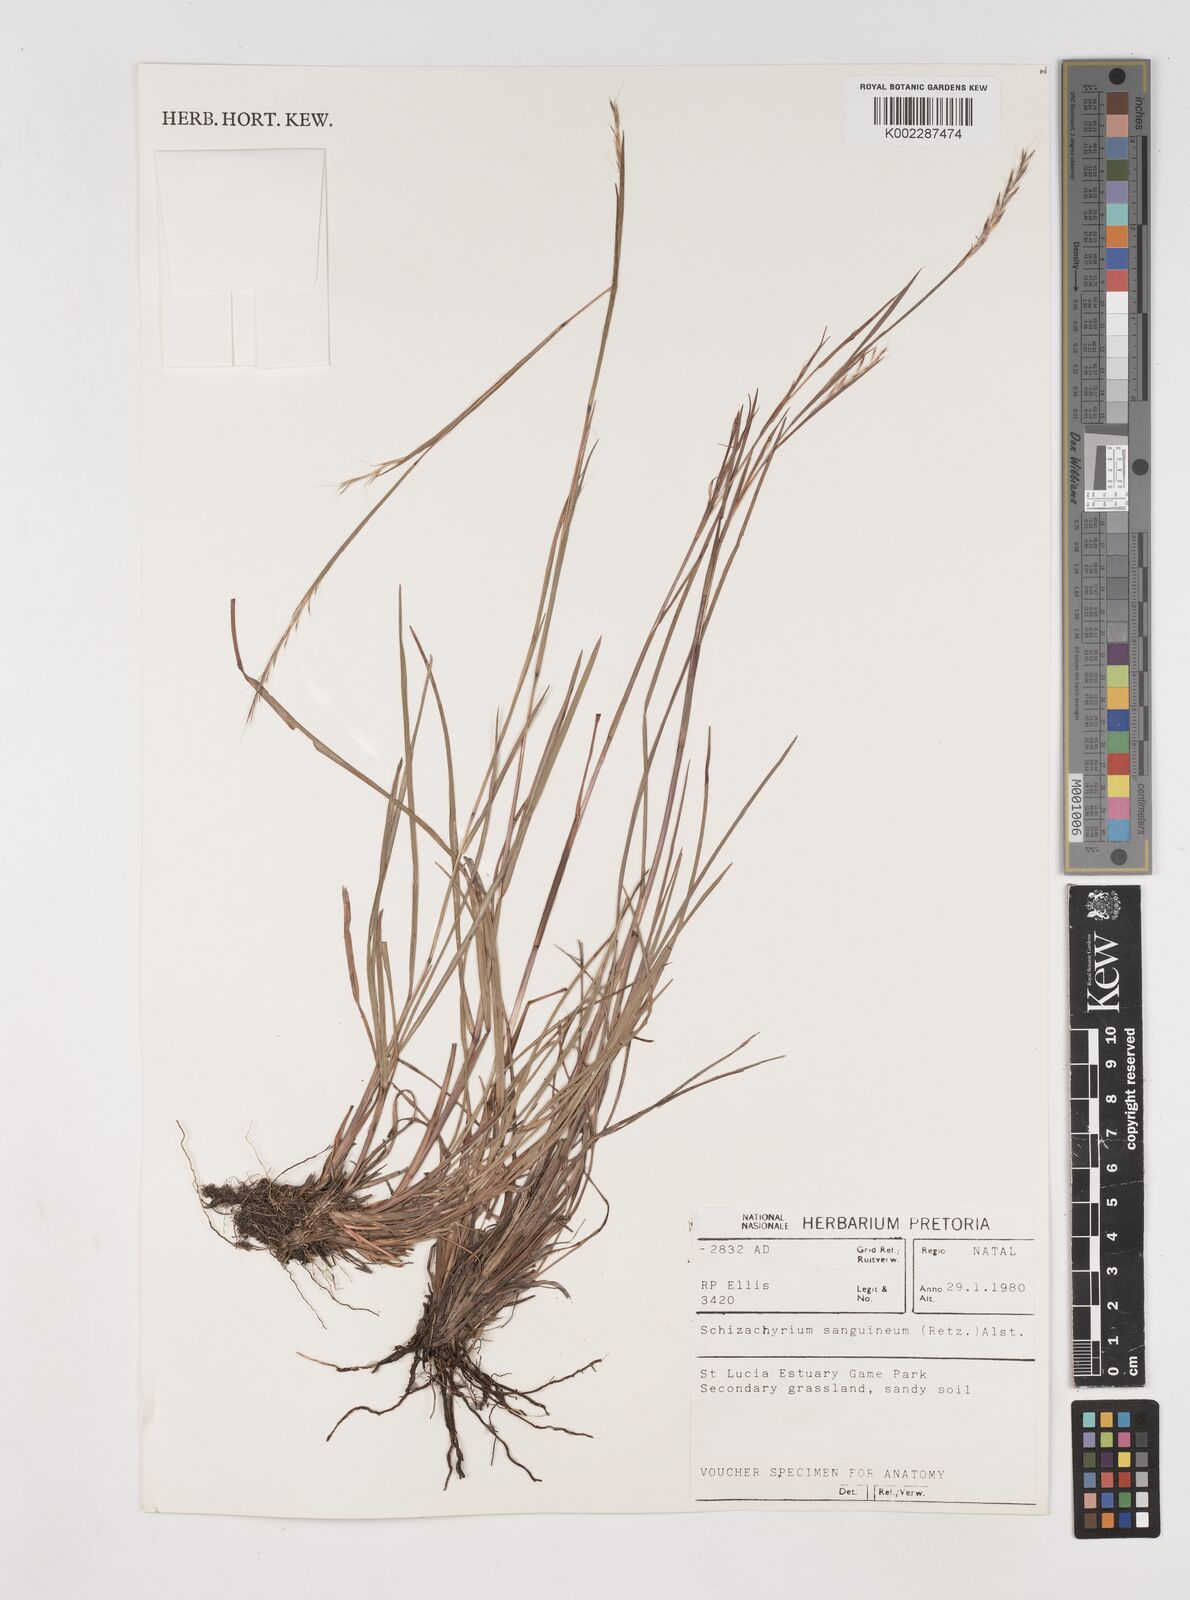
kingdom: Plantae
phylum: Tracheophyta
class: Liliopsida
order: Poales
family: Poaceae
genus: Schizachyrium
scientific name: Schizachyrium sanguineum
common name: Crimson bluestem
